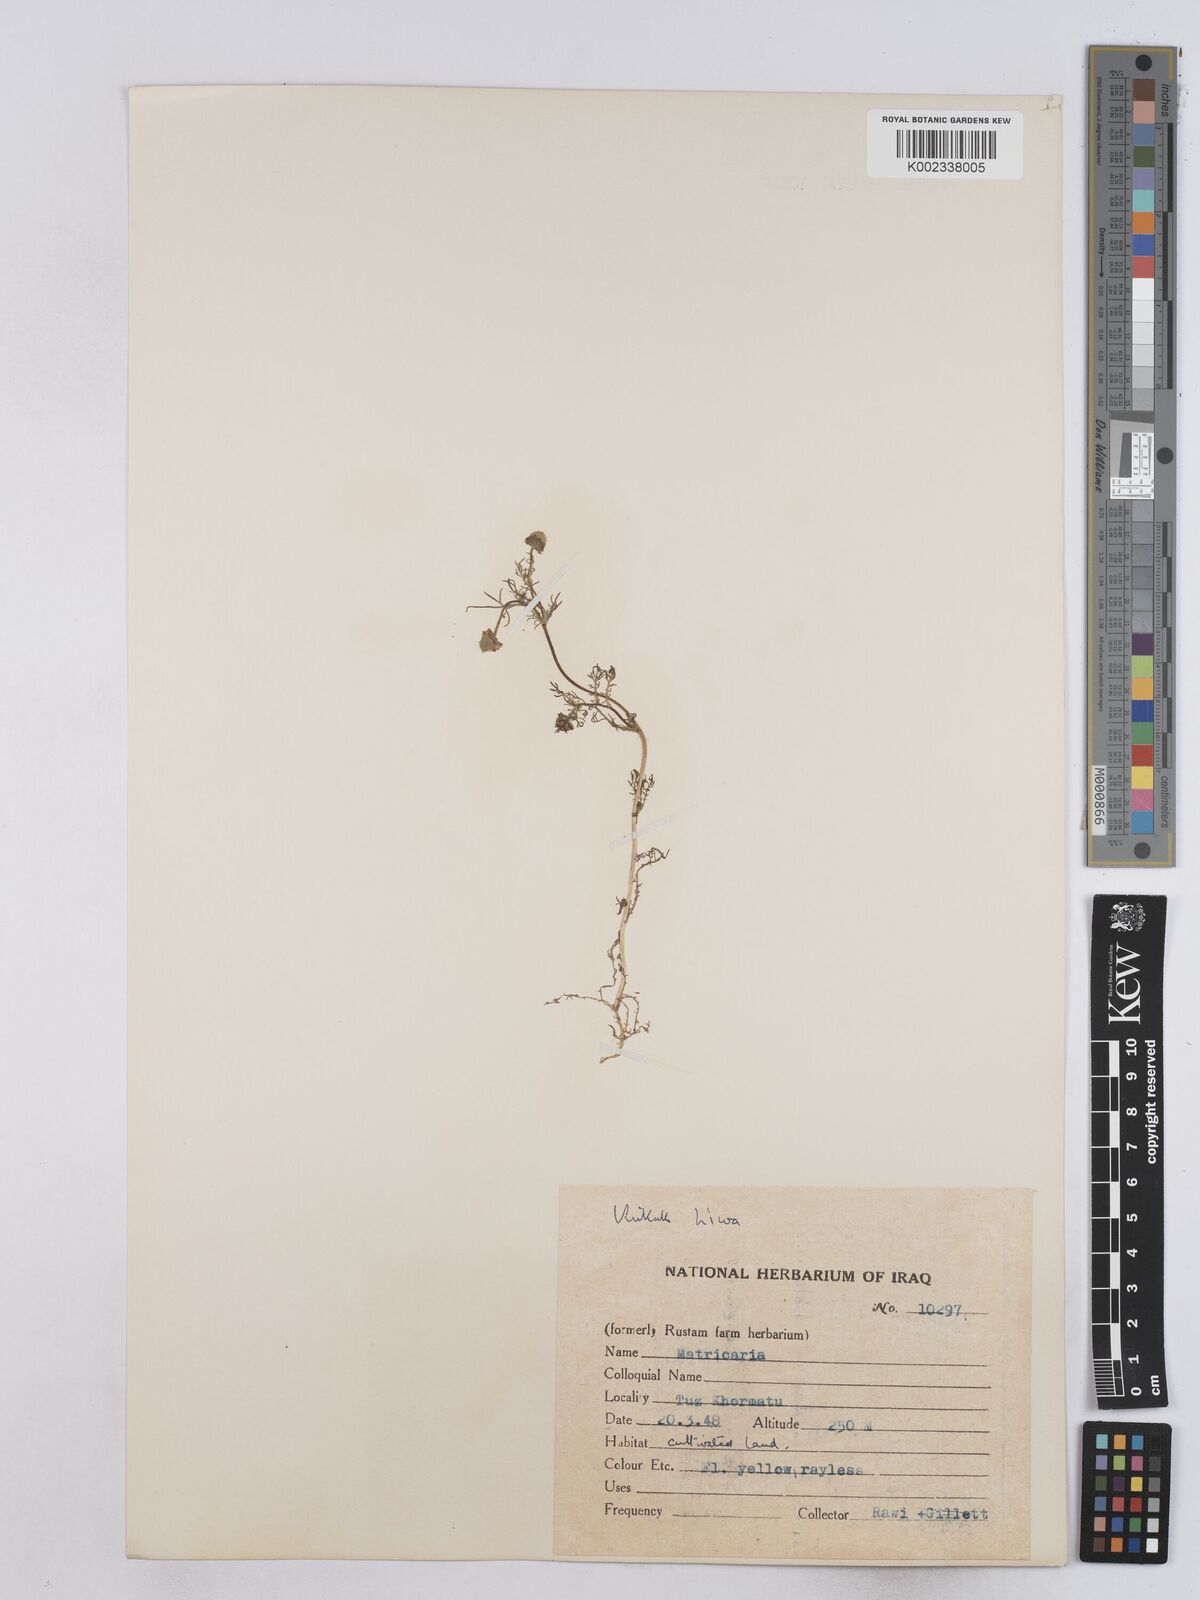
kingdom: Plantae
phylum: Tracheophyta
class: Magnoliopsida
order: Asterales
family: Asteraceae
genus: Matricaria
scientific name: Matricaria aurea
